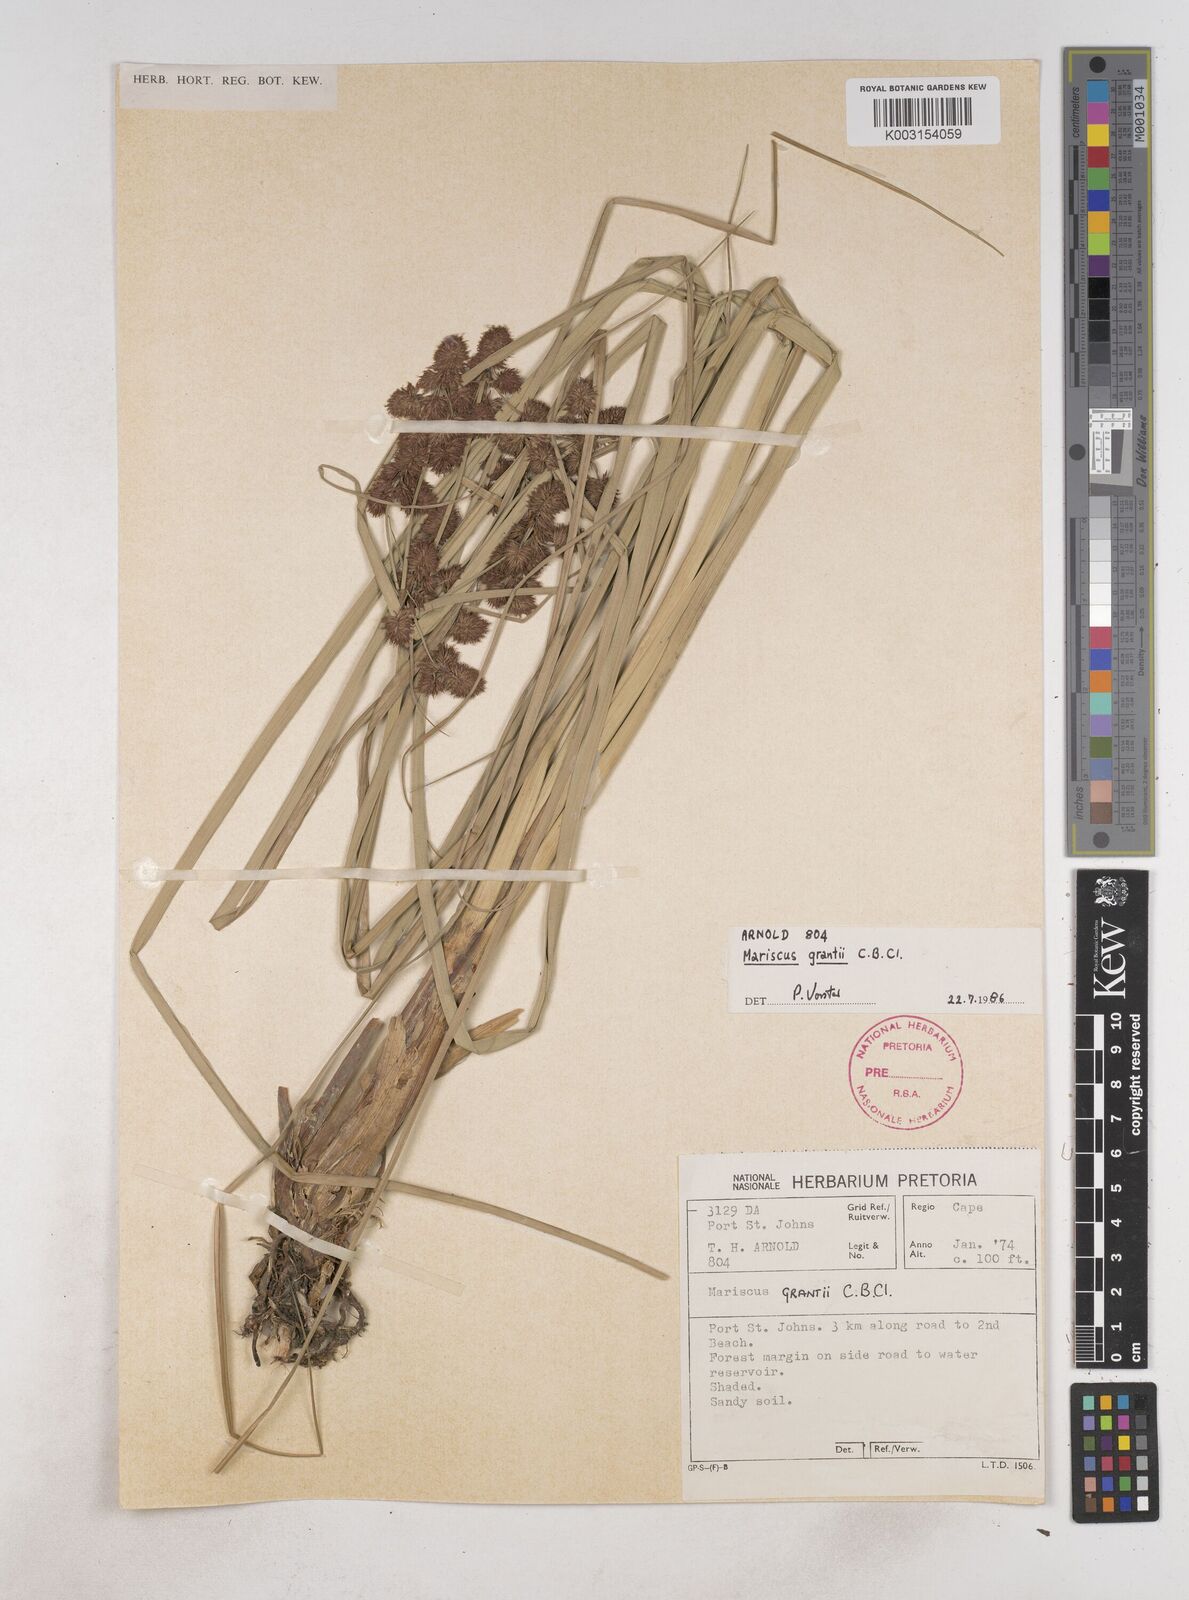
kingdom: Plantae
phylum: Tracheophyta
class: Liliopsida
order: Poales
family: Cyperaceae
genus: Cyperus
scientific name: Cyperus owanii
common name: Owan's flatsedge
